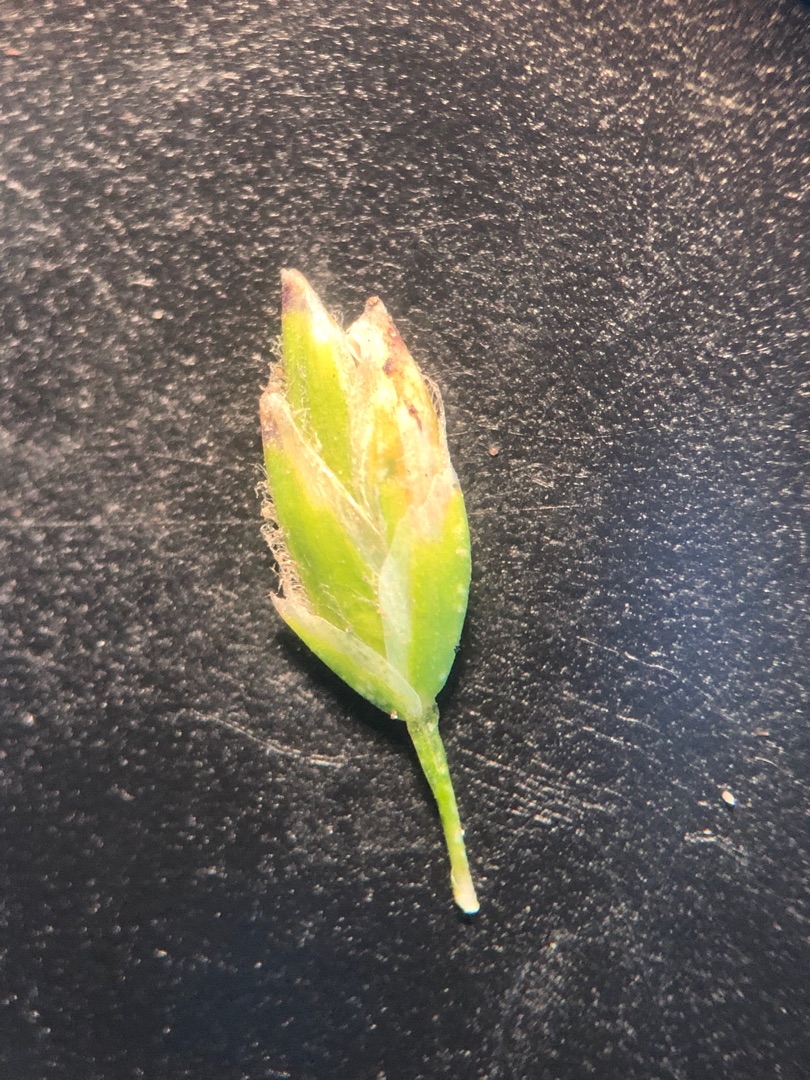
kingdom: Plantae
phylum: Tracheophyta
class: Liliopsida
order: Poales
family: Poaceae
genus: Poa
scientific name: Poa annua
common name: Enårig rapgræs
